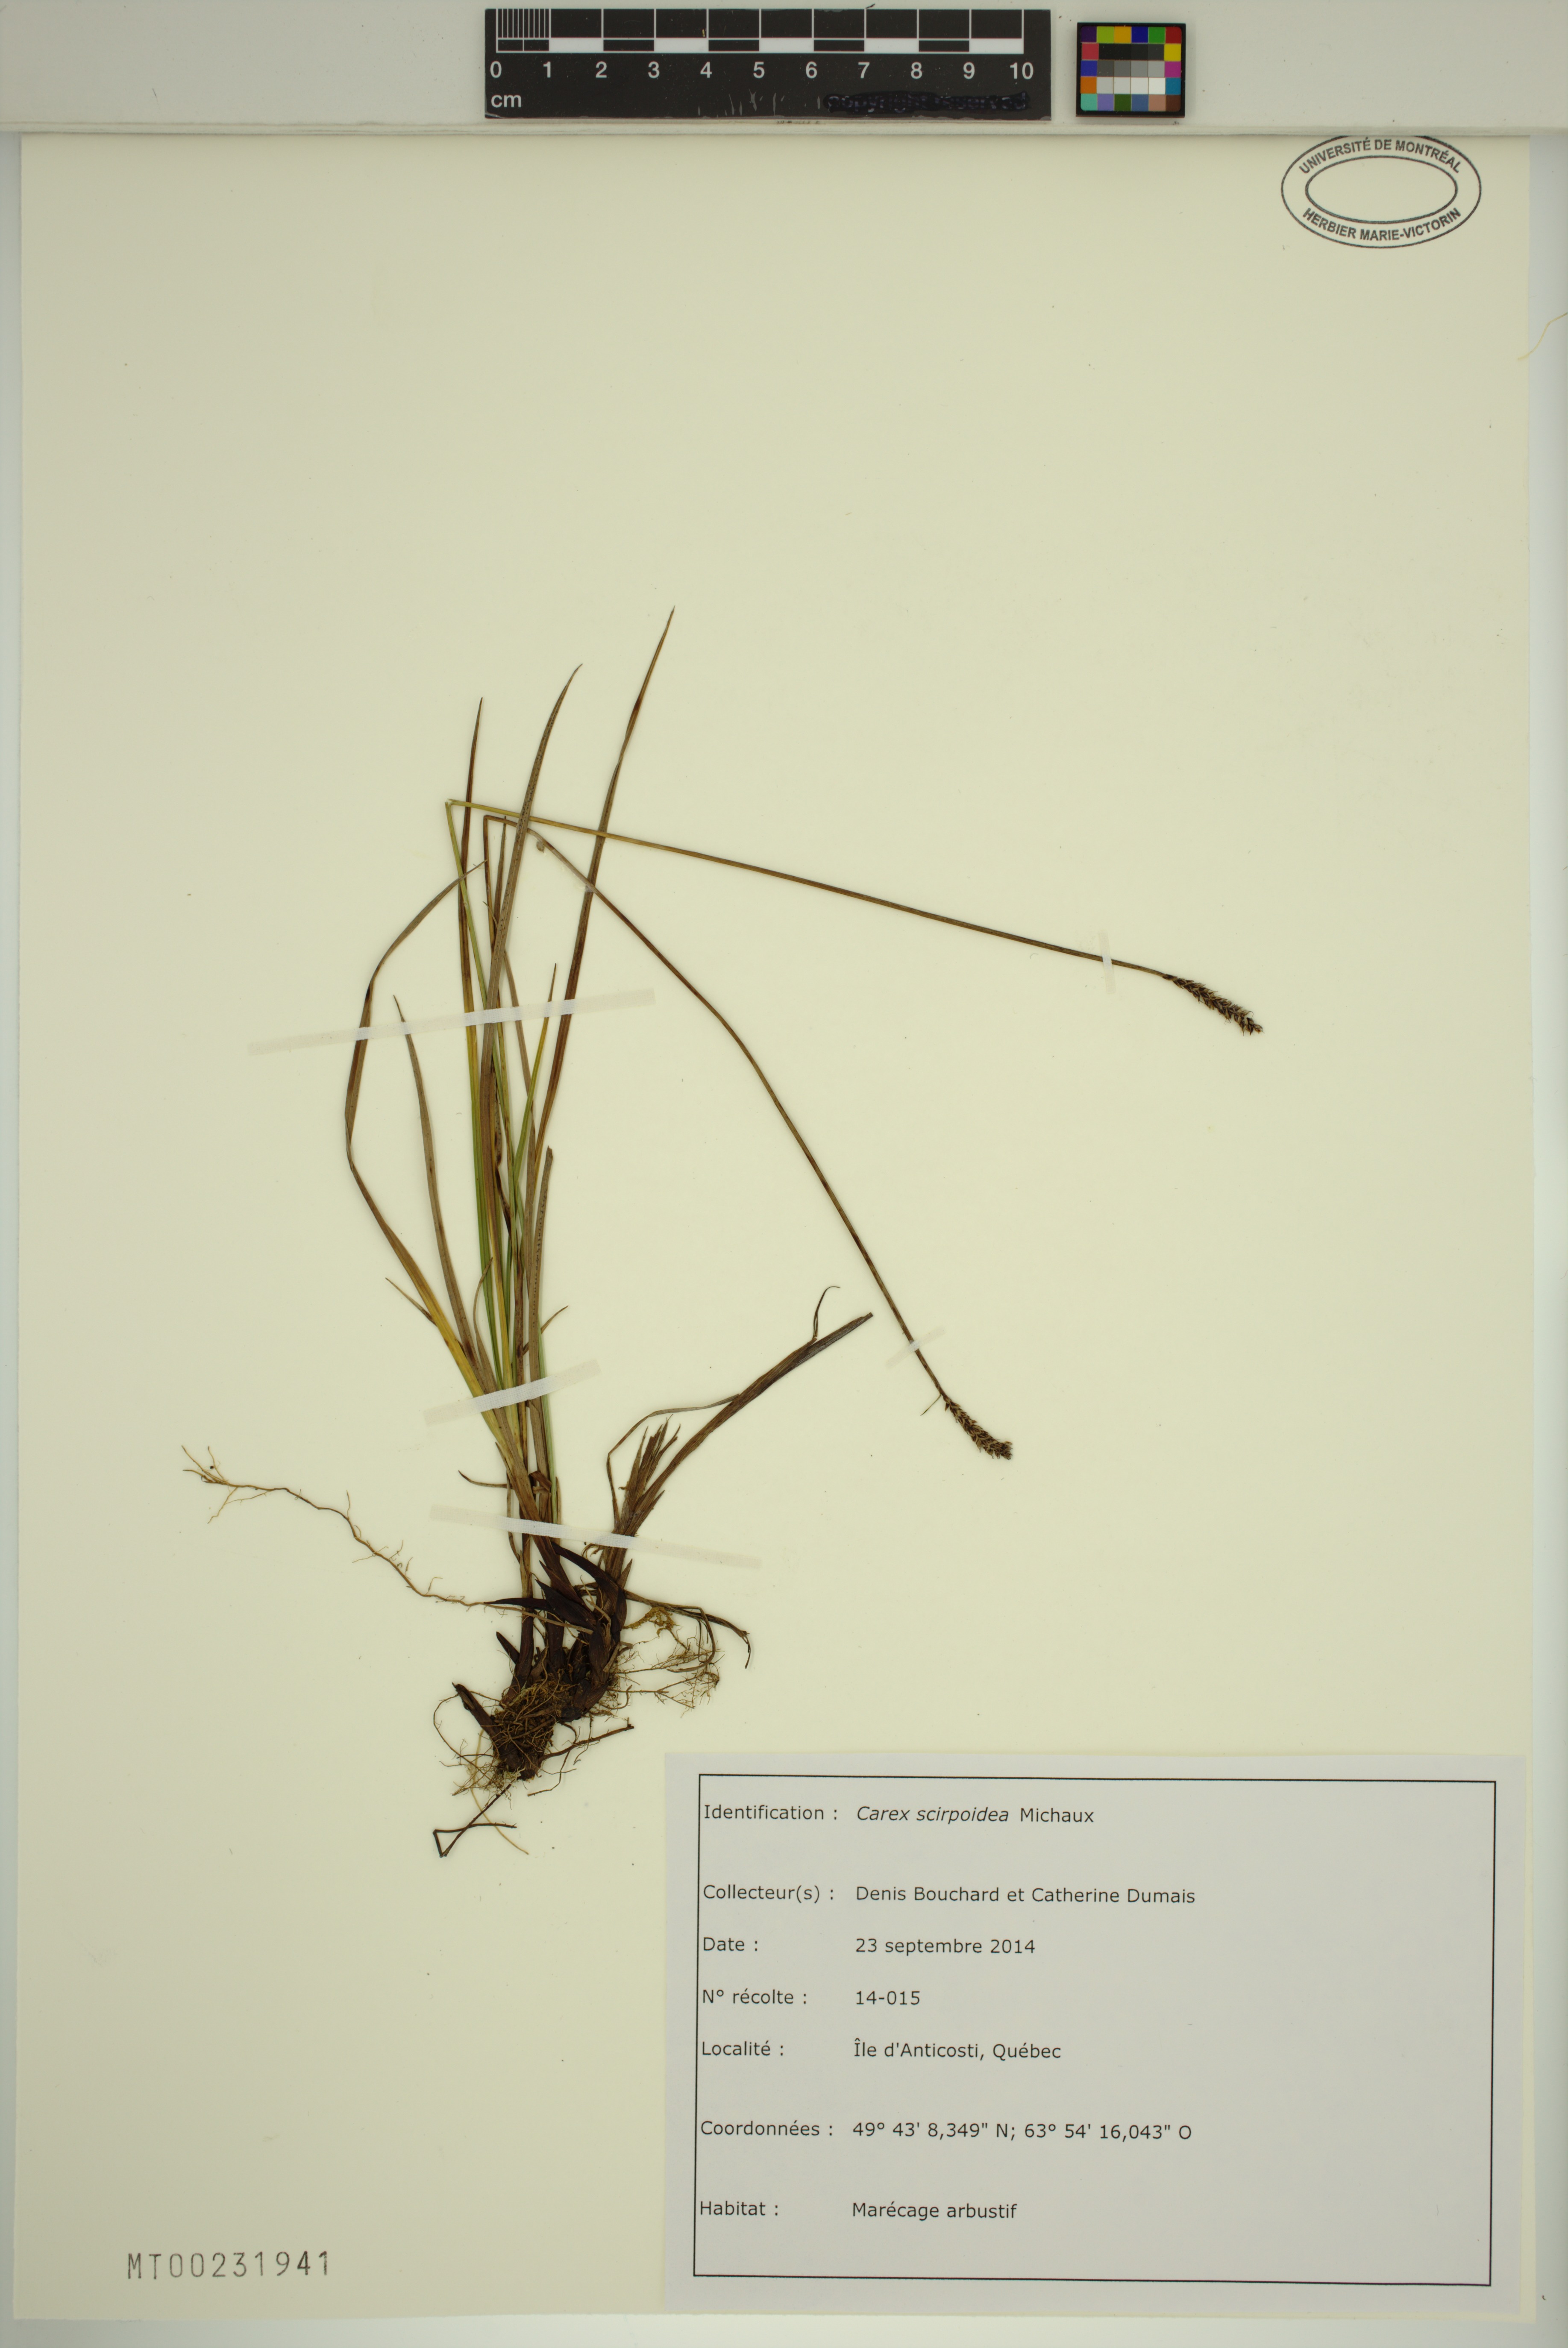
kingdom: Plantae
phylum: Tracheophyta
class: Liliopsida
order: Poales
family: Cyperaceae
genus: Carex
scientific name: Carex scirpoidea
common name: Canada single-spike sedge
